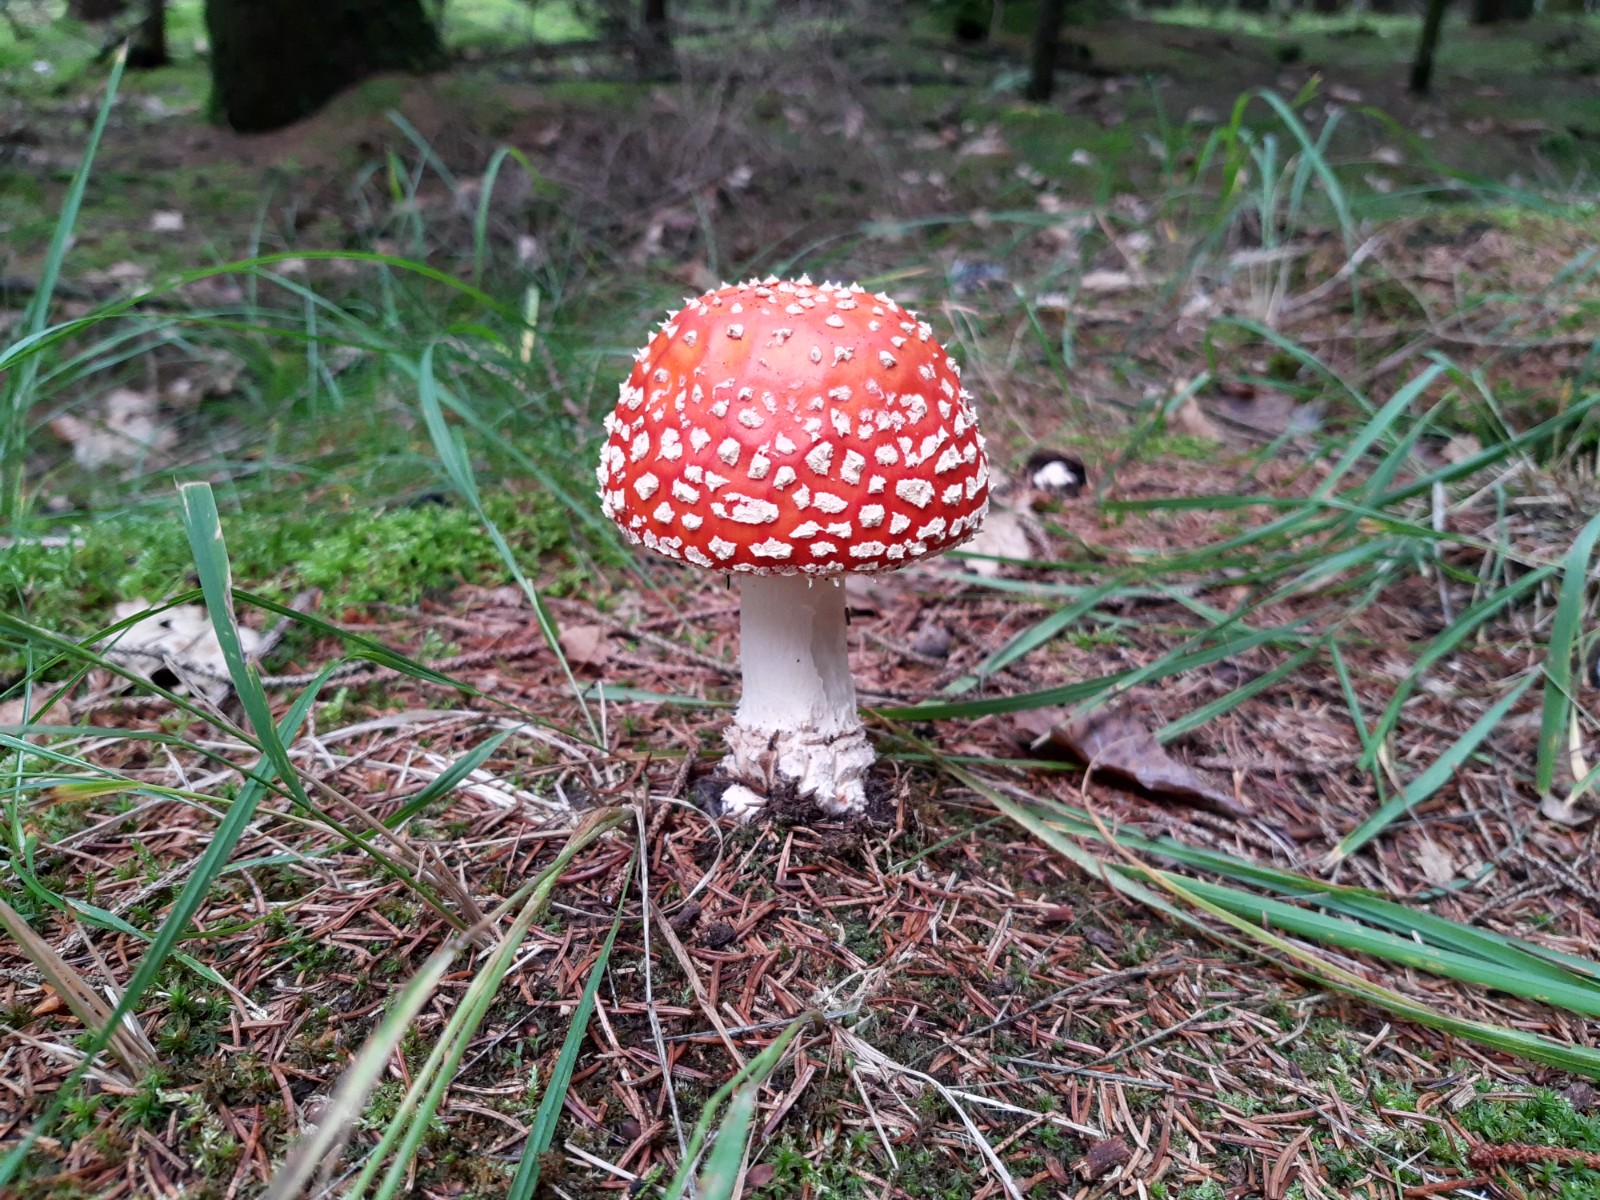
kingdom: Fungi
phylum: Basidiomycota
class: Agaricomycetes
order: Agaricales
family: Amanitaceae
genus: Amanita
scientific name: Amanita muscaria
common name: rød fluesvamp
